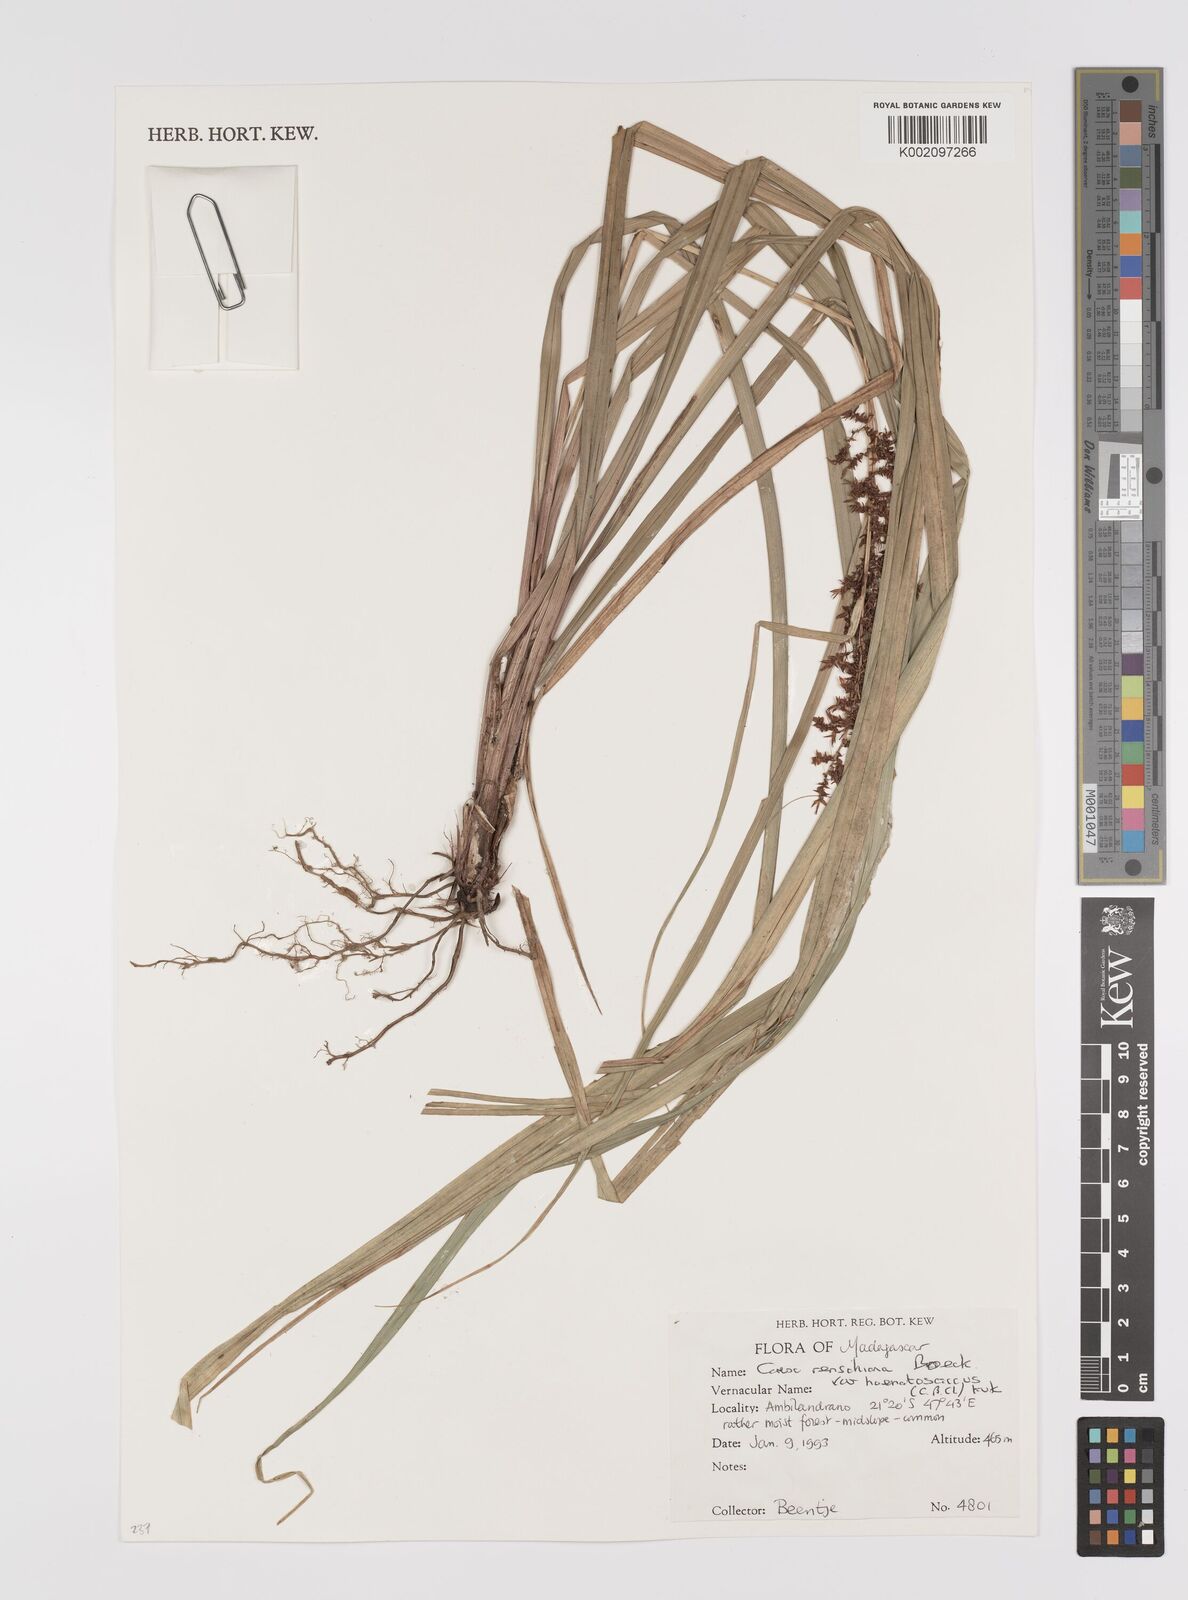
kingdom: Plantae
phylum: Tracheophyta
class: Liliopsida
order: Poales
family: Cyperaceae
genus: Carex
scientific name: Carex renschiana
